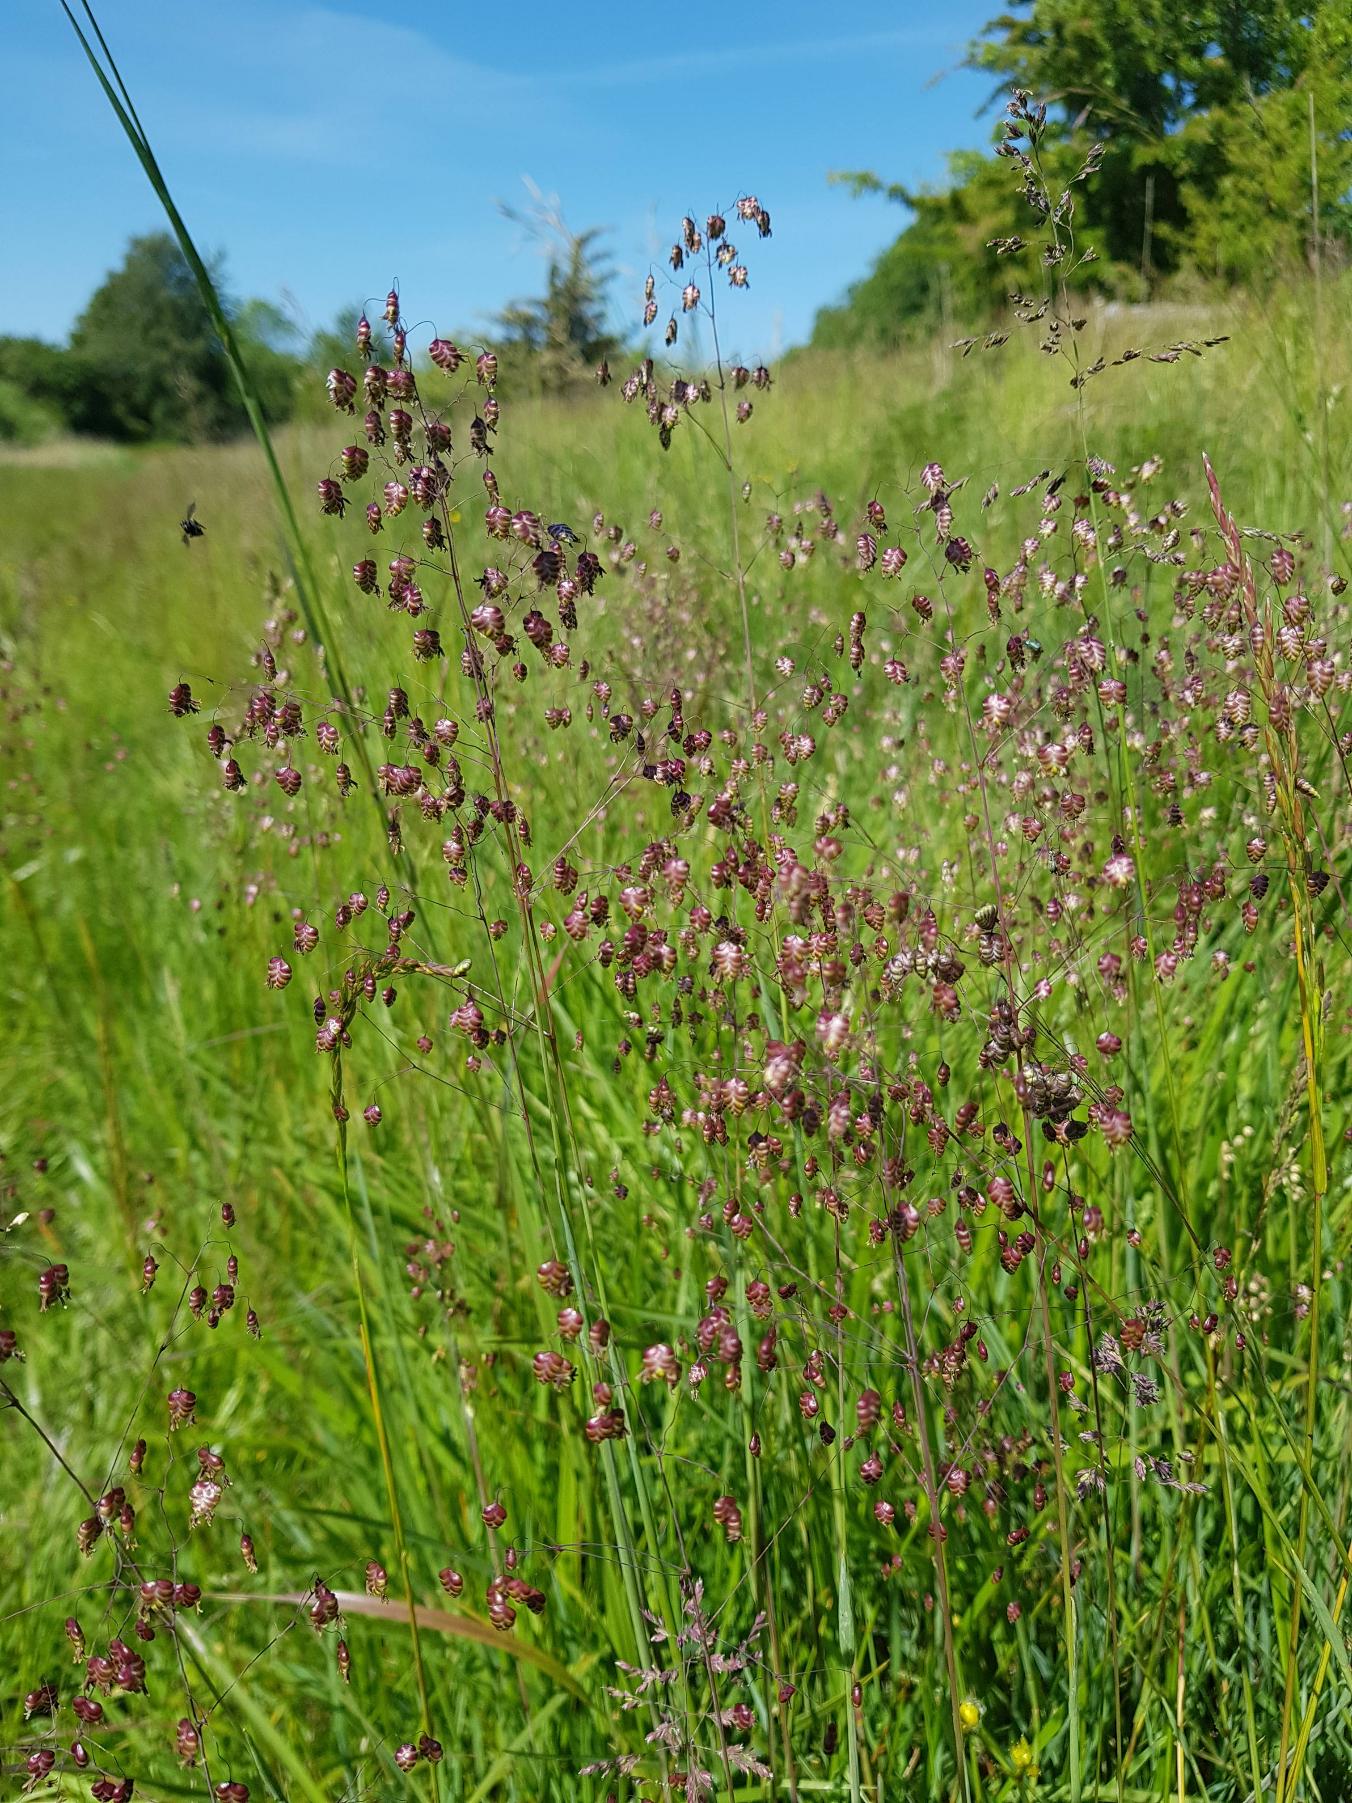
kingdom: Plantae
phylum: Tracheophyta
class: Liliopsida
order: Poales
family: Poaceae
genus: Briza
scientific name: Briza media
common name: Hjertegræs
